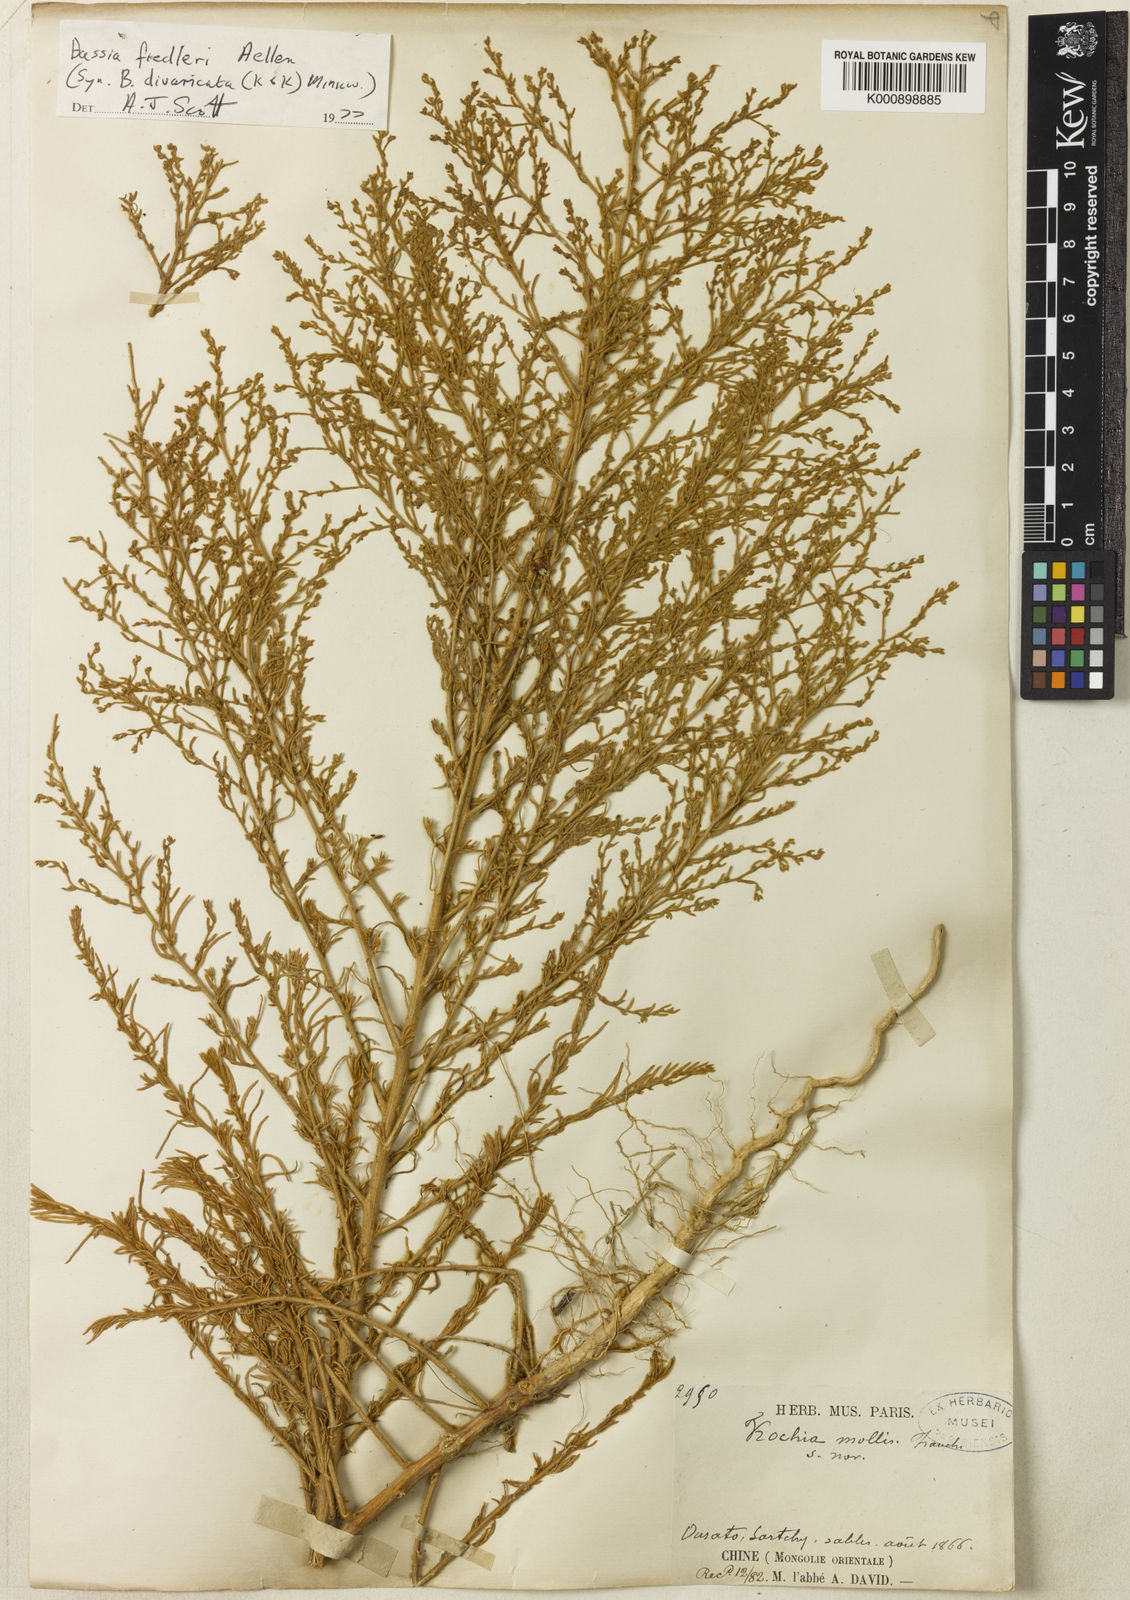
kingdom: Plantae
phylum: Tracheophyta
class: Magnoliopsida
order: Caryophyllales
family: Amaranthaceae
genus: Bassia
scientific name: Bassia
